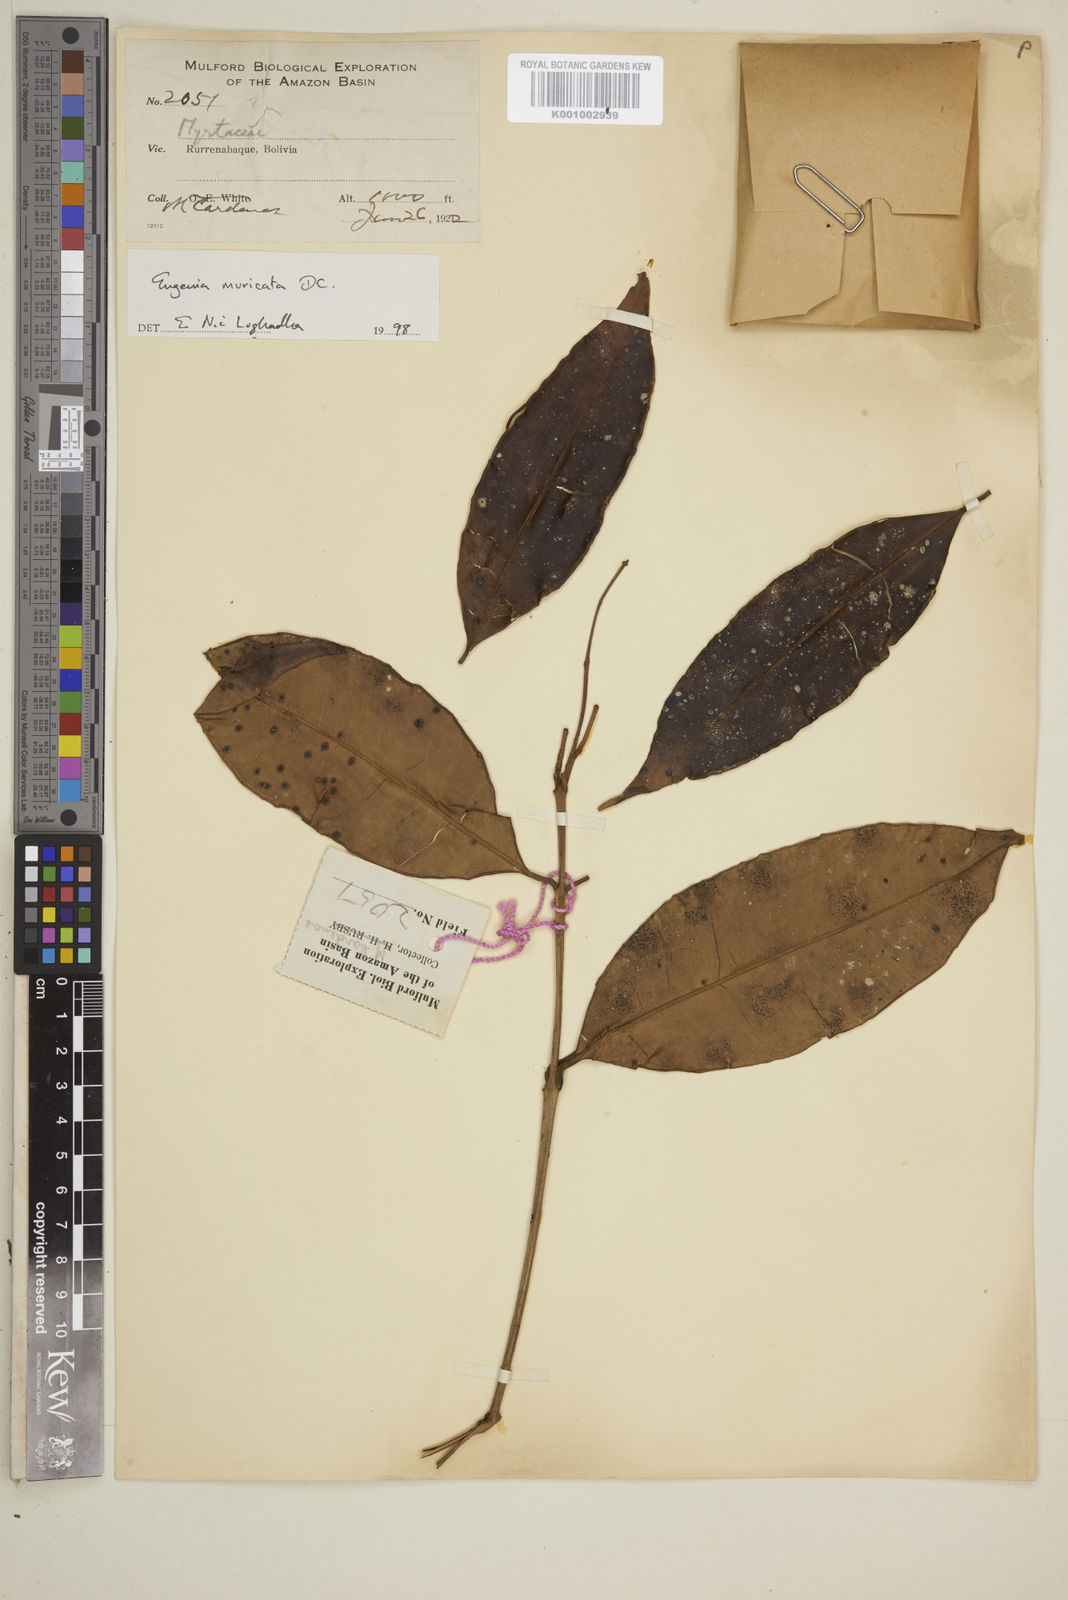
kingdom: Plantae
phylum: Tracheophyta
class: Magnoliopsida
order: Myrtales
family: Myrtaceae
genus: Eugenia
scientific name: Eugenia muricata
